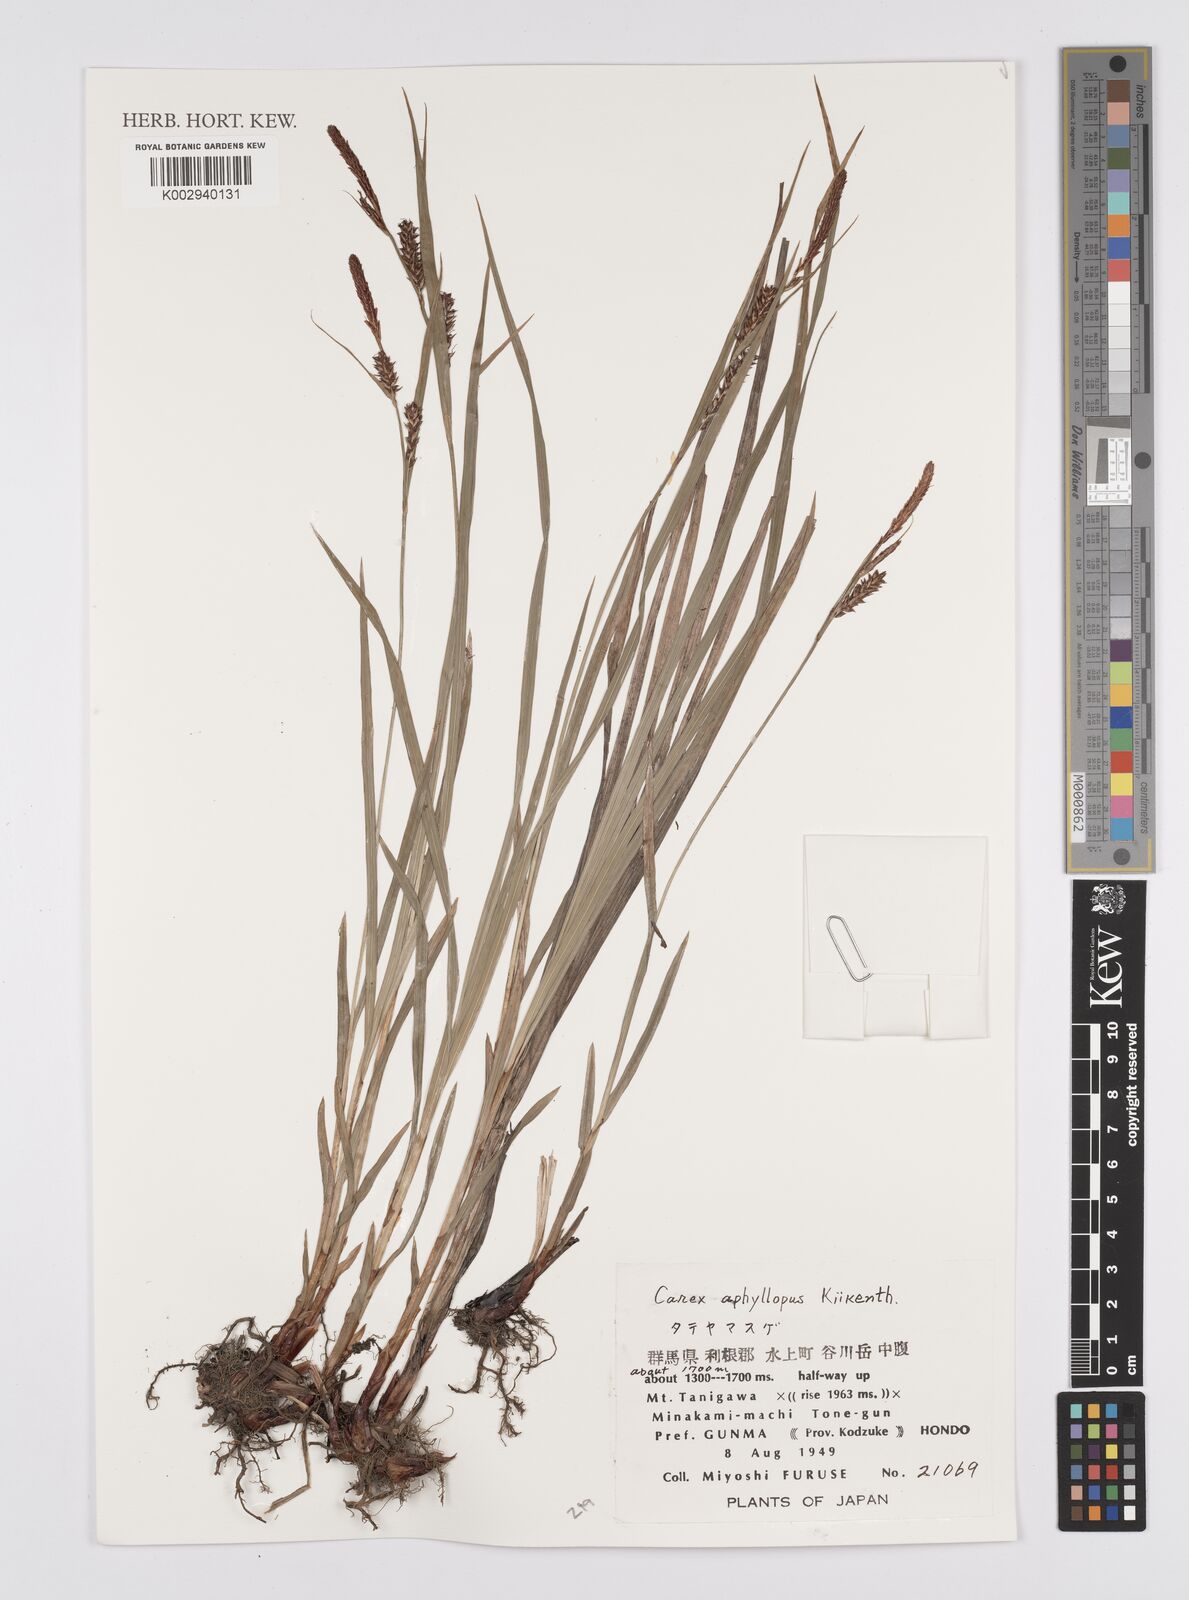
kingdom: Plantae
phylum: Tracheophyta
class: Liliopsida
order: Poales
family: Cyperaceae
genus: Carex
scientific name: Carex aphyllopus
